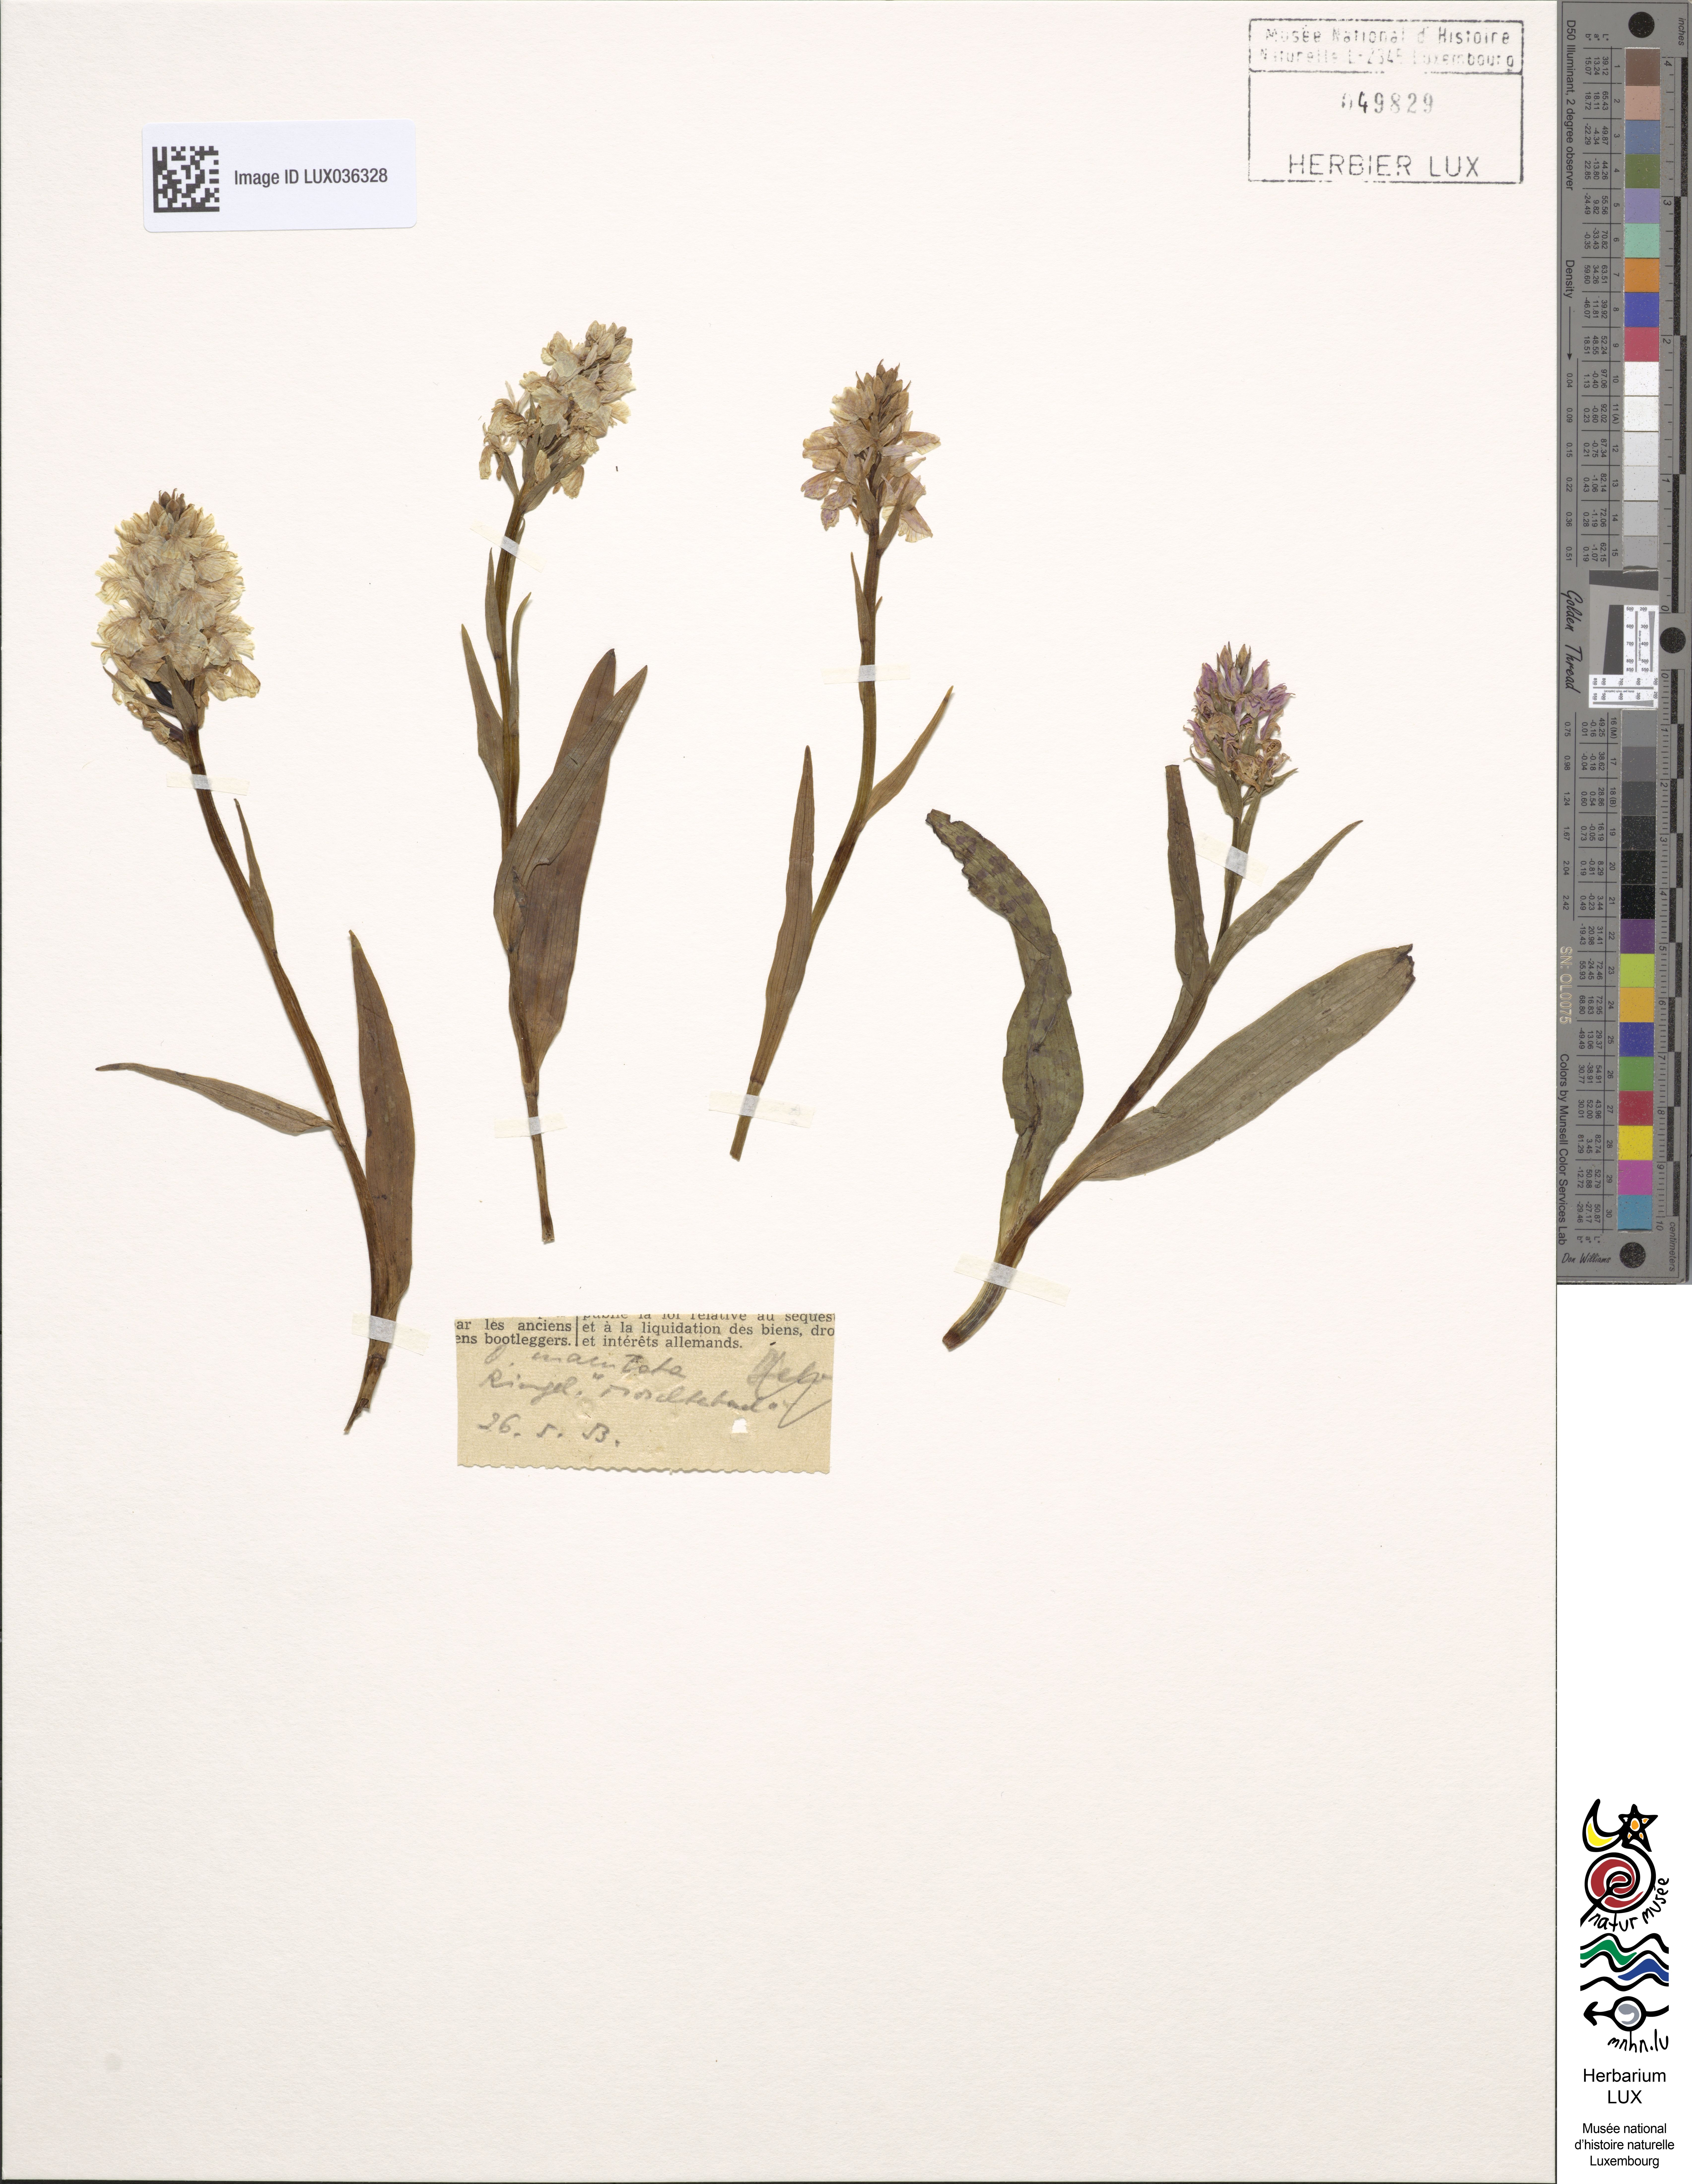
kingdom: Plantae
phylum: Tracheophyta
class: Liliopsida
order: Asparagales
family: Orchidaceae
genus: Dactylorhiza
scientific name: Dactylorhiza maculata
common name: Heath spotted-orchid
